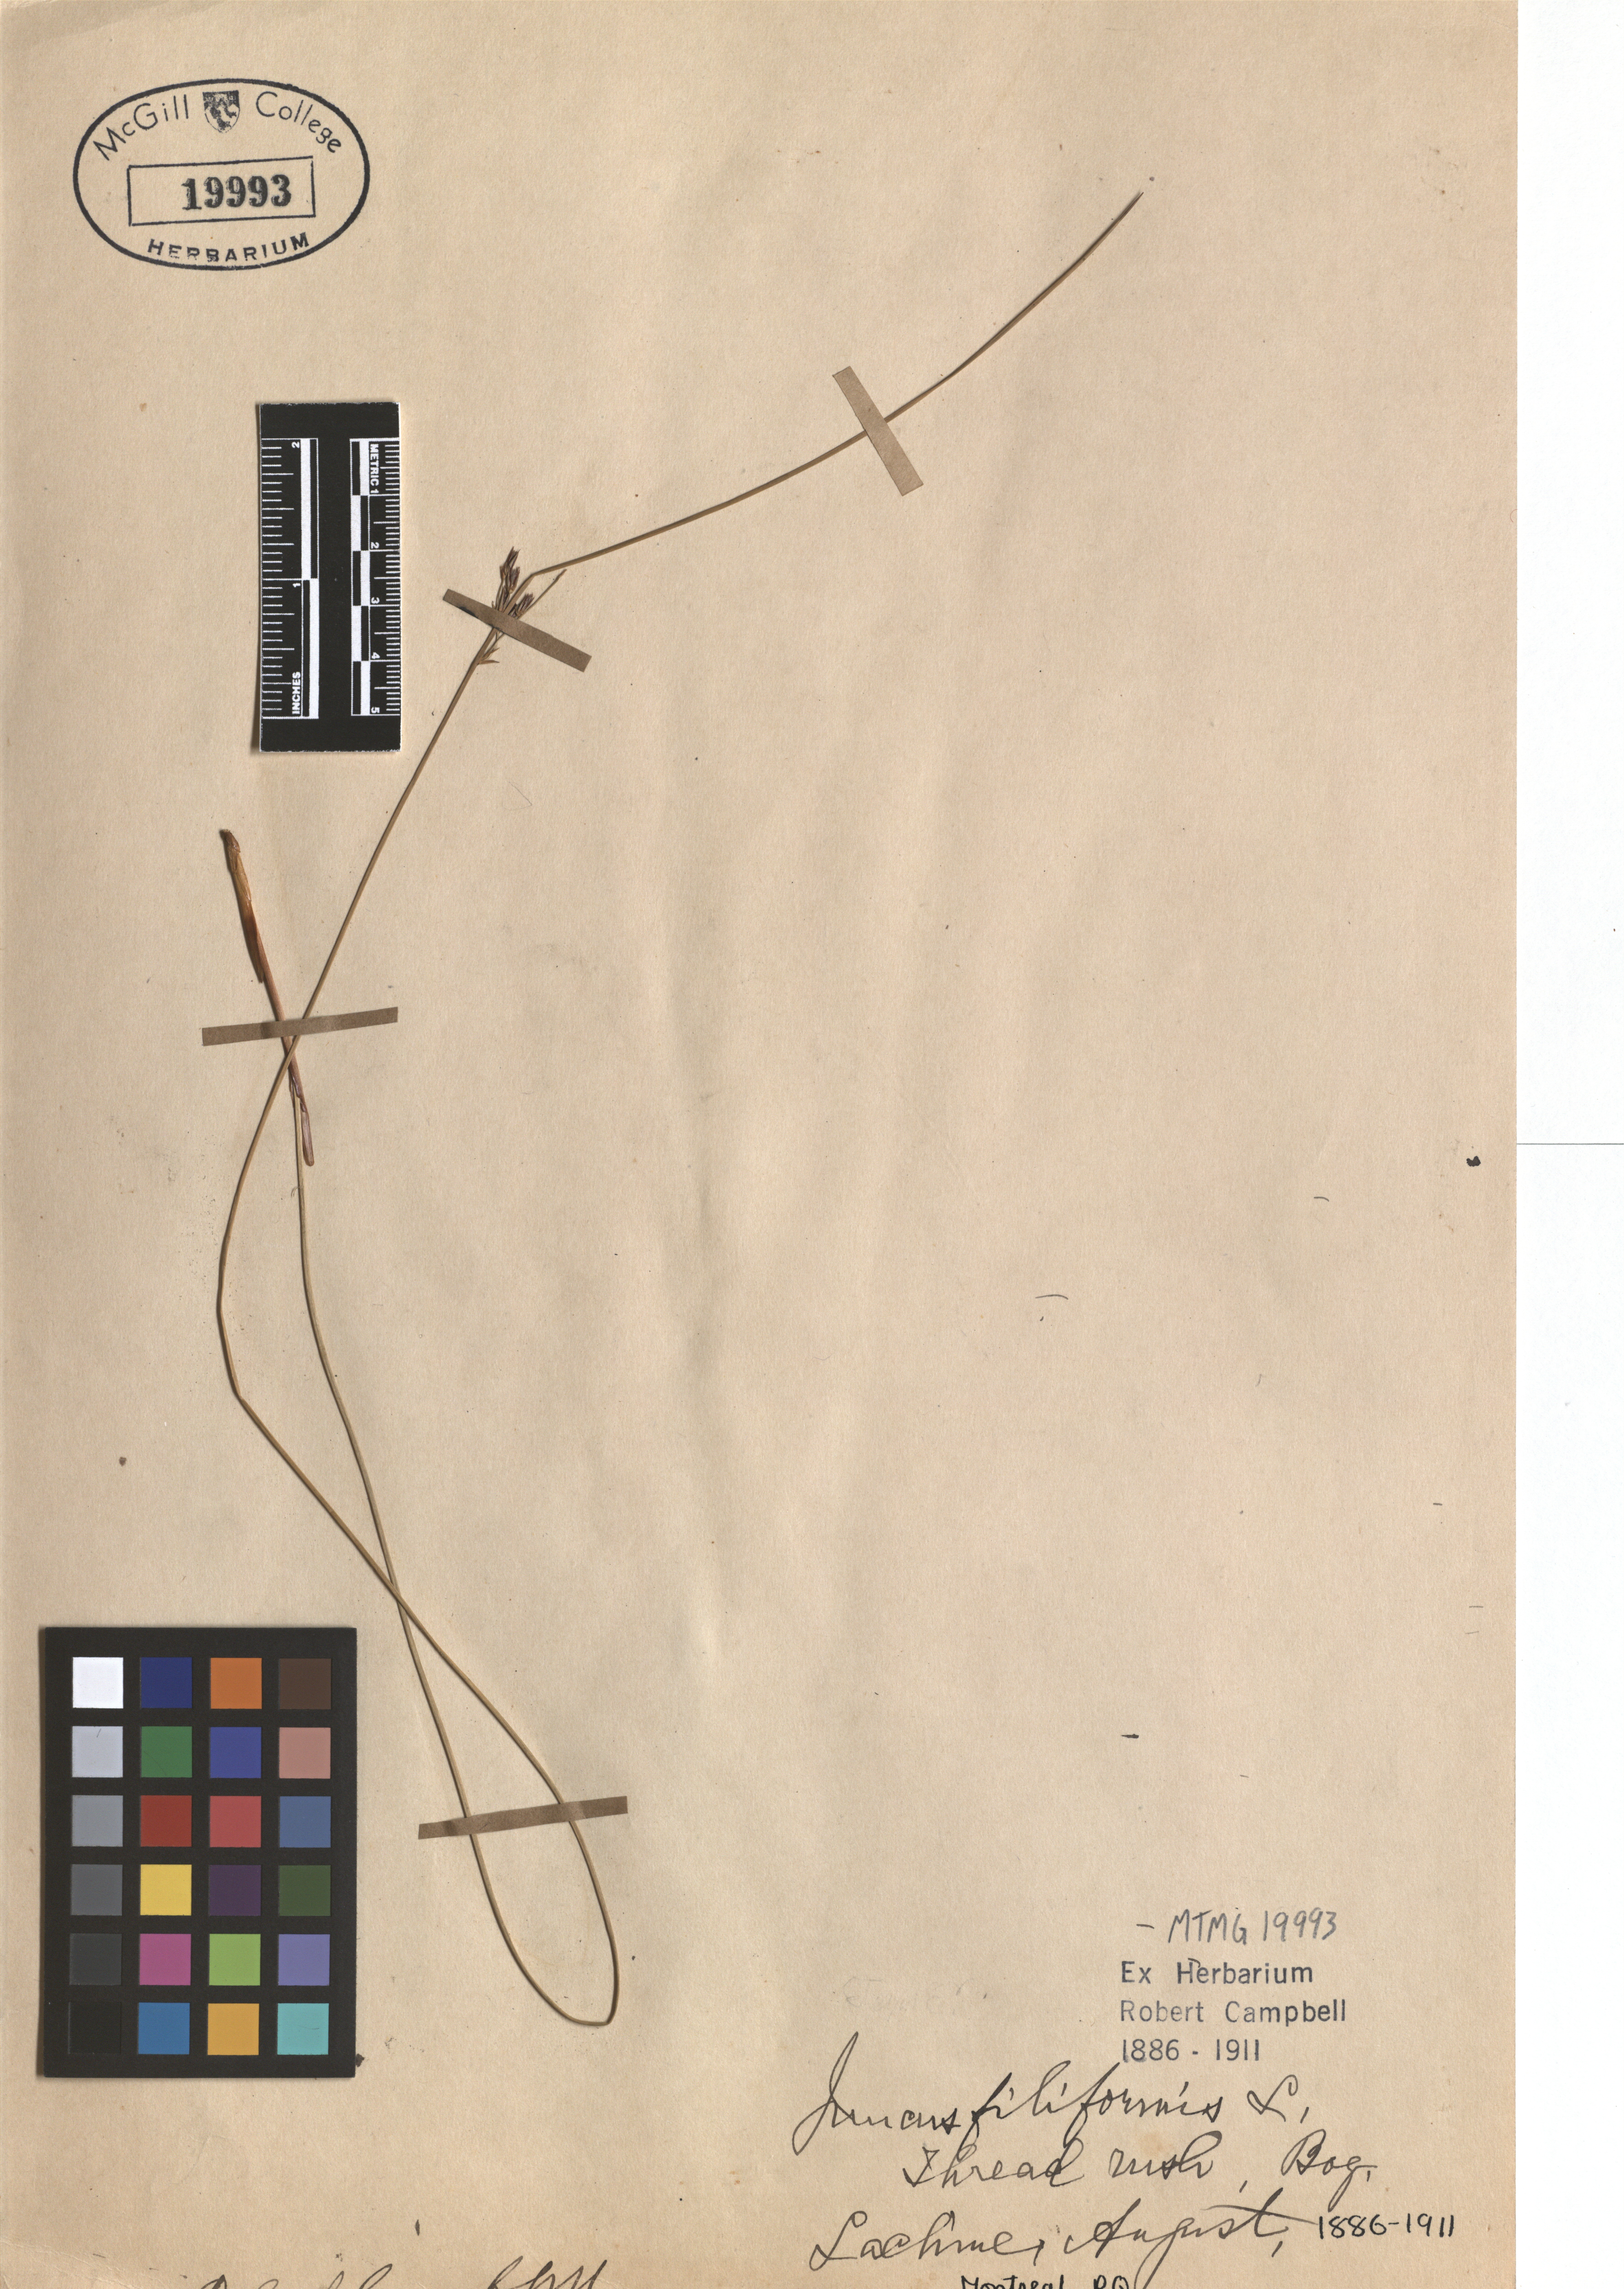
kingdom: Plantae
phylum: Tracheophyta
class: Liliopsida
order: Poales
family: Juncaceae
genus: Juncus
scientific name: Juncus filiformis
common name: Thread rush
